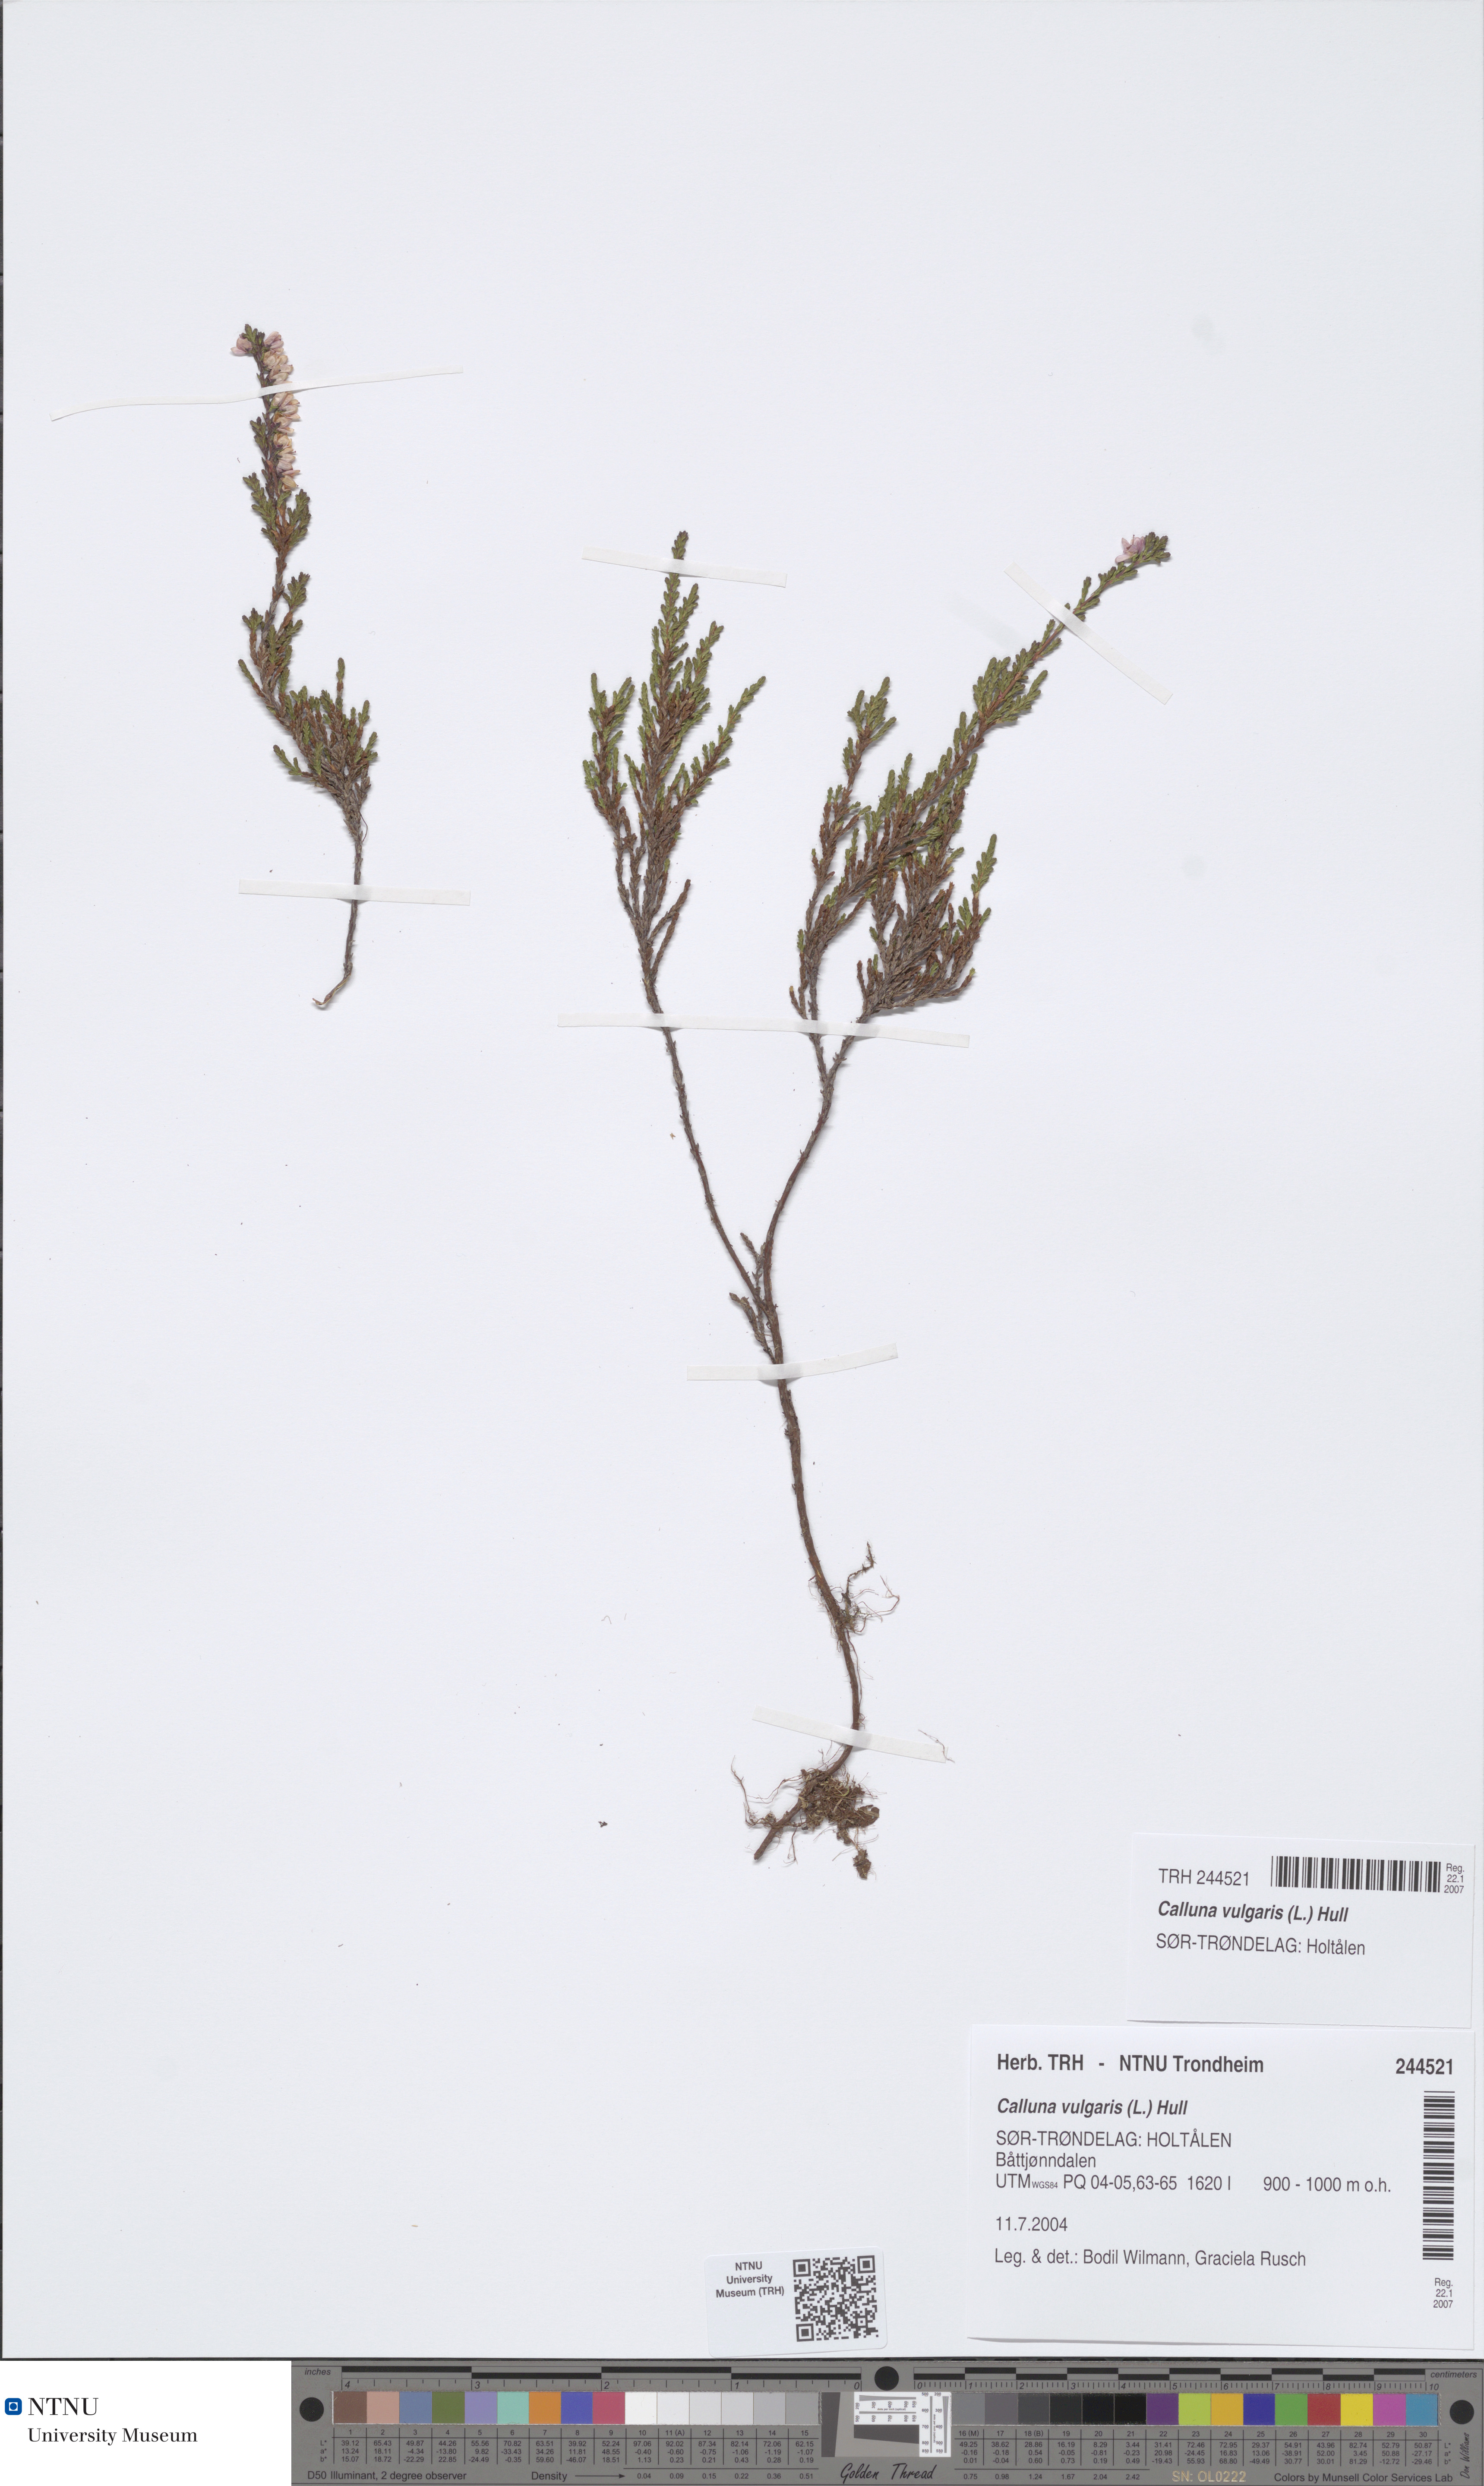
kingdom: Plantae
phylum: Tracheophyta
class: Magnoliopsida
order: Ericales
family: Ericaceae
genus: Calluna
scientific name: Calluna vulgaris
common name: Heather
